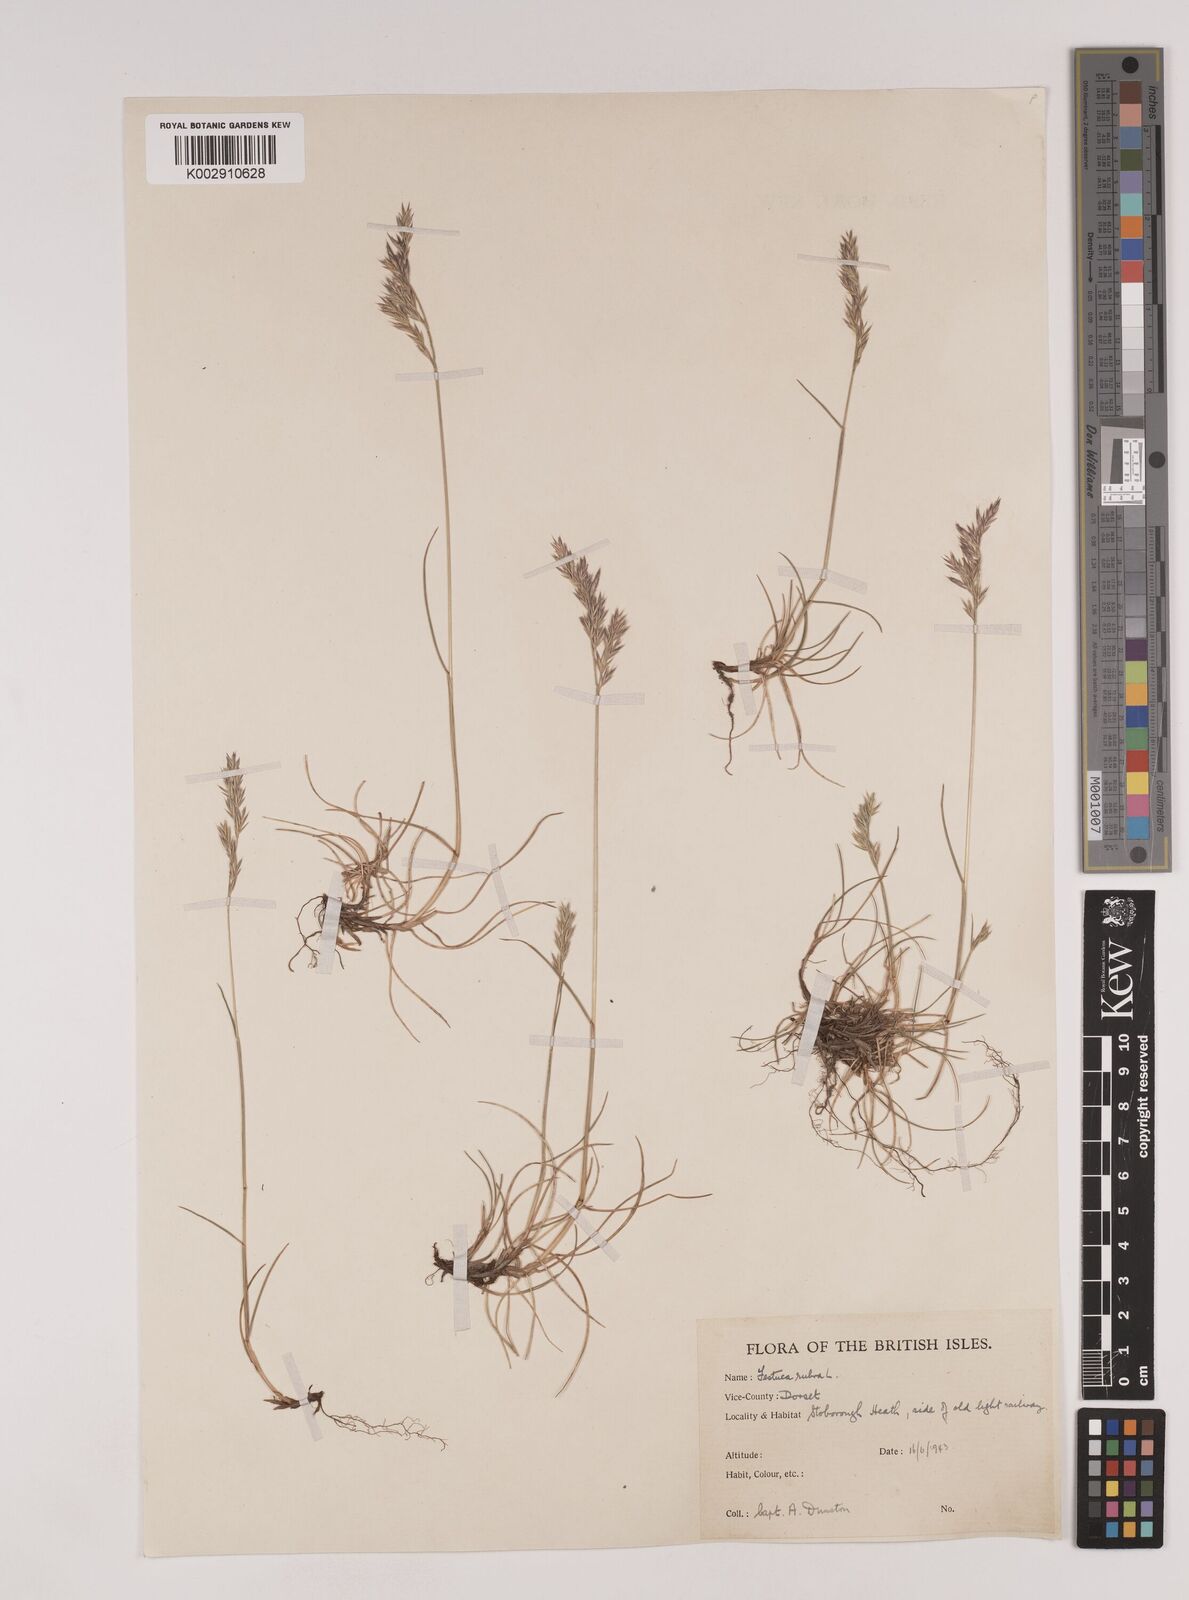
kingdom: Plantae
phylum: Tracheophyta
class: Liliopsida
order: Poales
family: Poaceae
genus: Festuca
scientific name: Festuca rubra
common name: Red fescue
